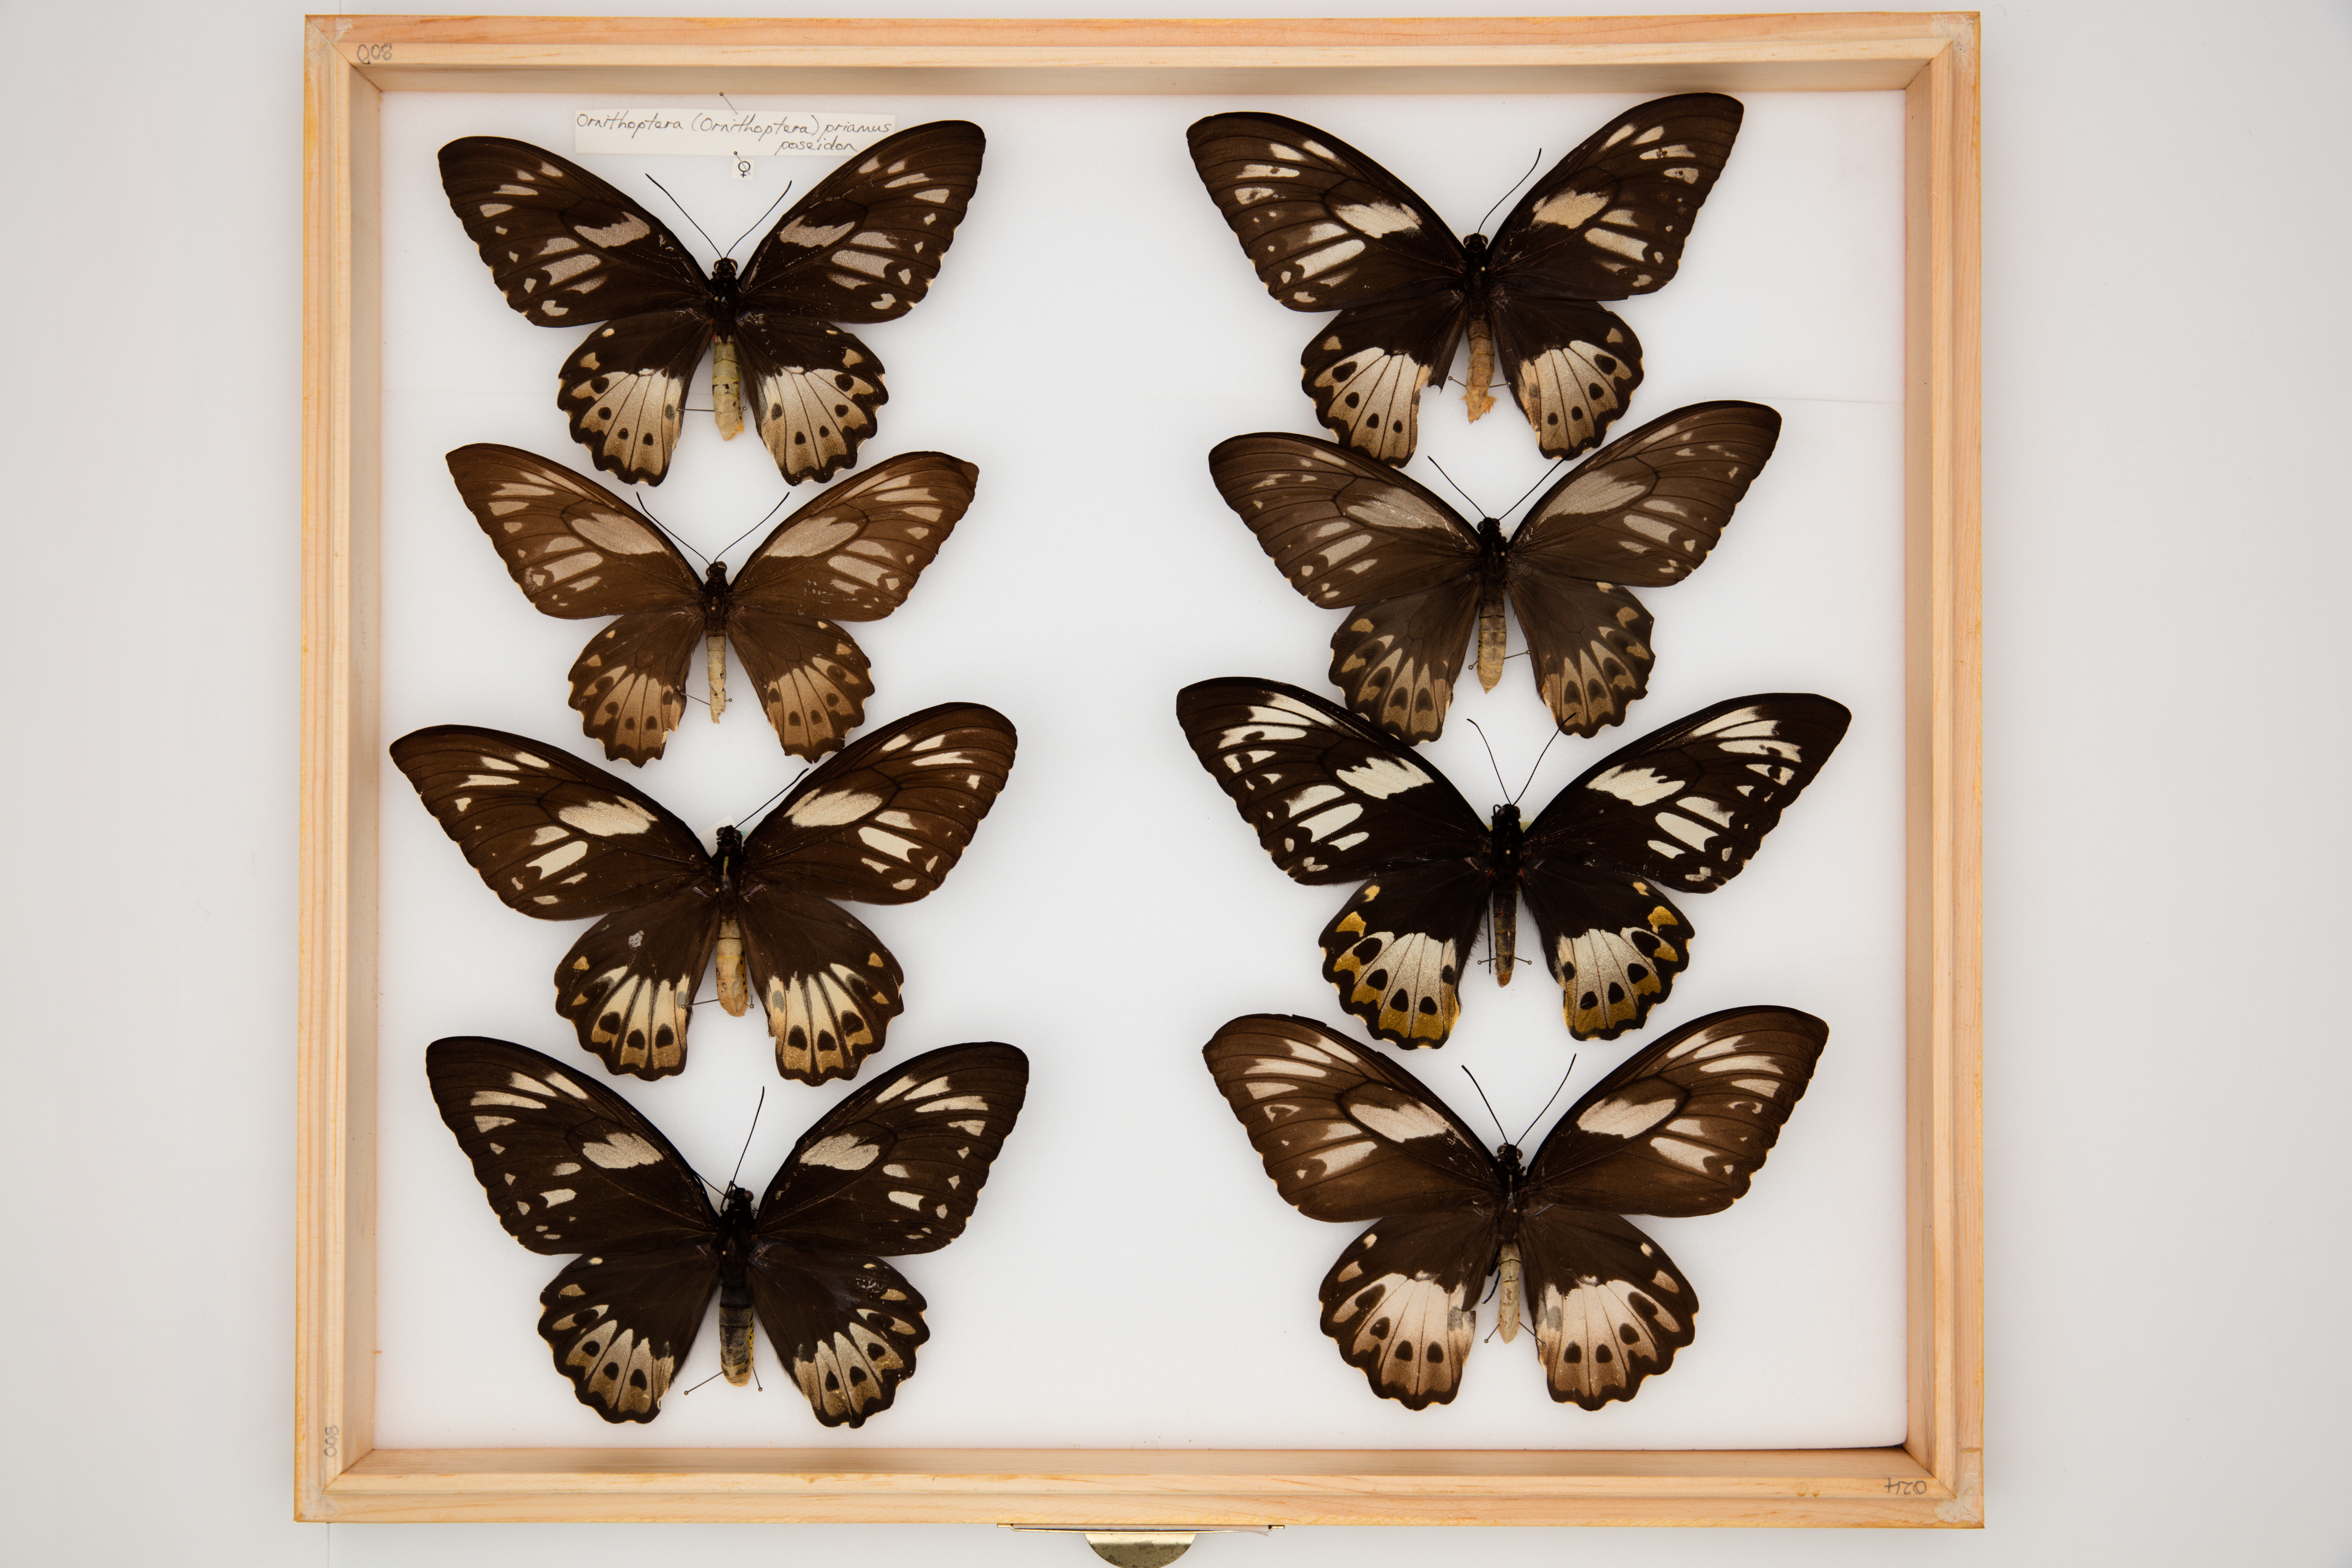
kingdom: Animalia
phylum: Arthropoda
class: Insecta
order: Lepidoptera
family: Papilionidae
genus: Ornithoptera
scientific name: Ornithoptera priamus
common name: Cape york birdwing
